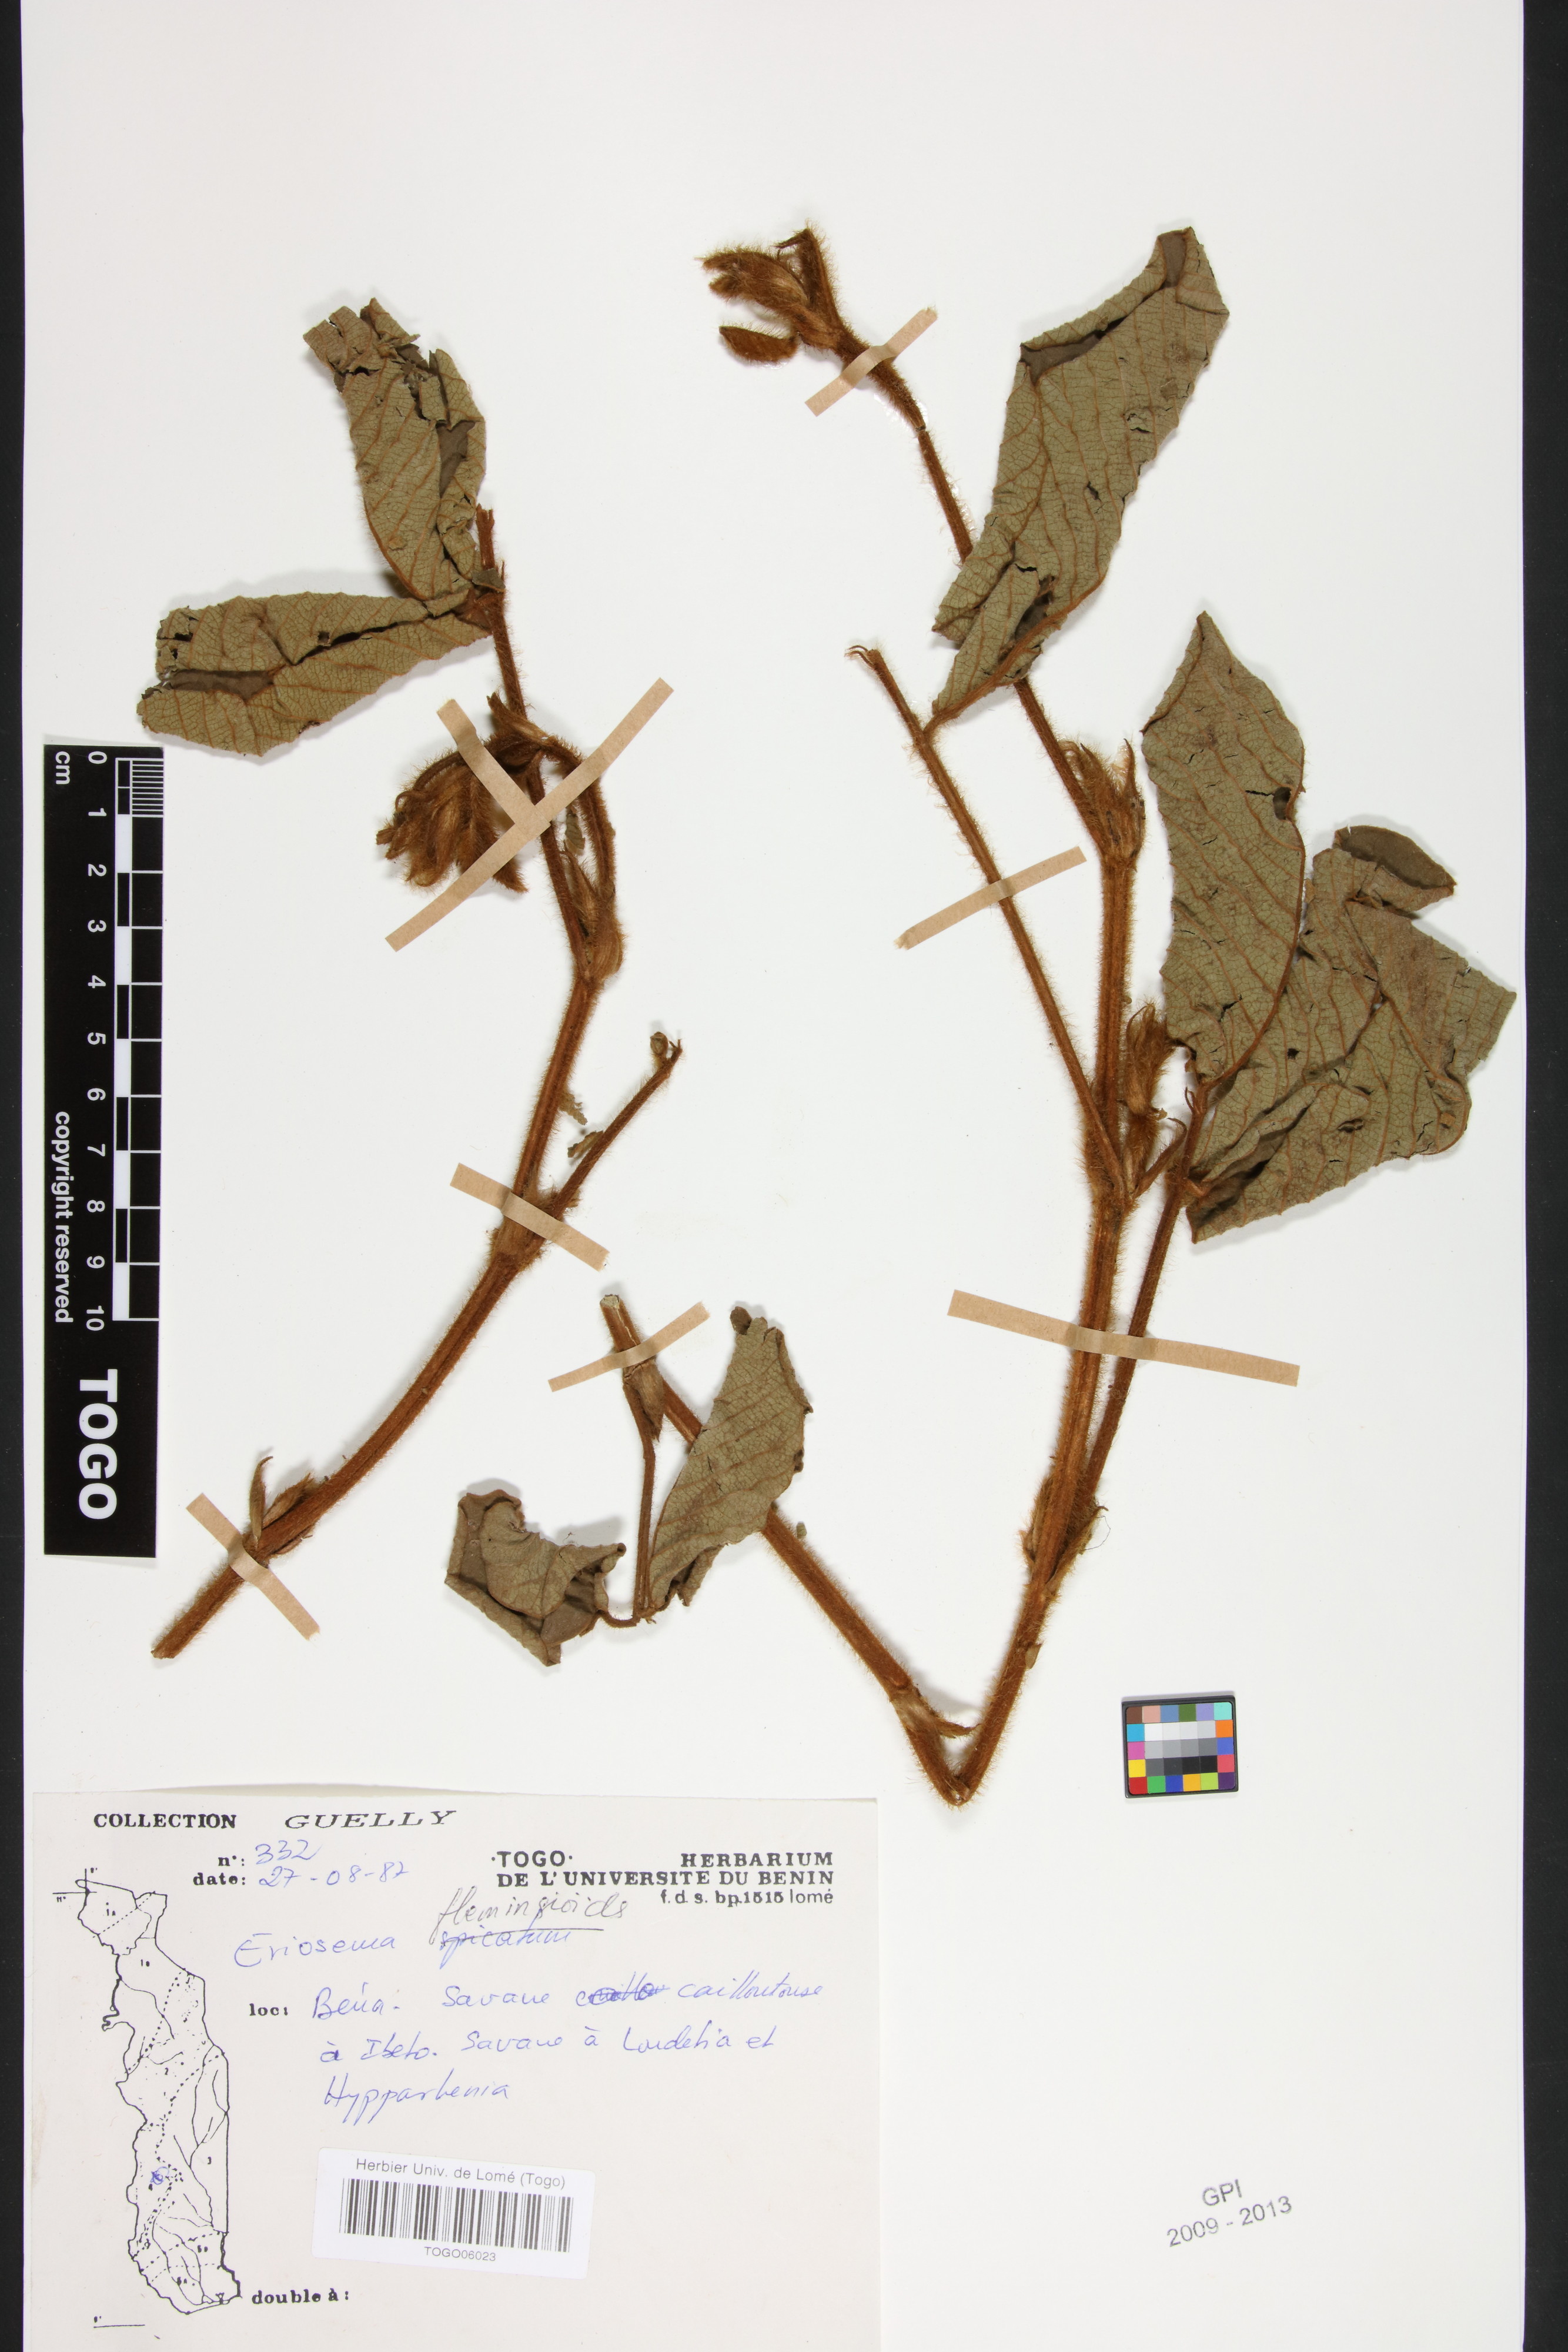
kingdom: Plantae
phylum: Tracheophyta
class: Magnoliopsida
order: Fabales
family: Fabaceae
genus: Eriosema
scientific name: Eriosema flemingioides
